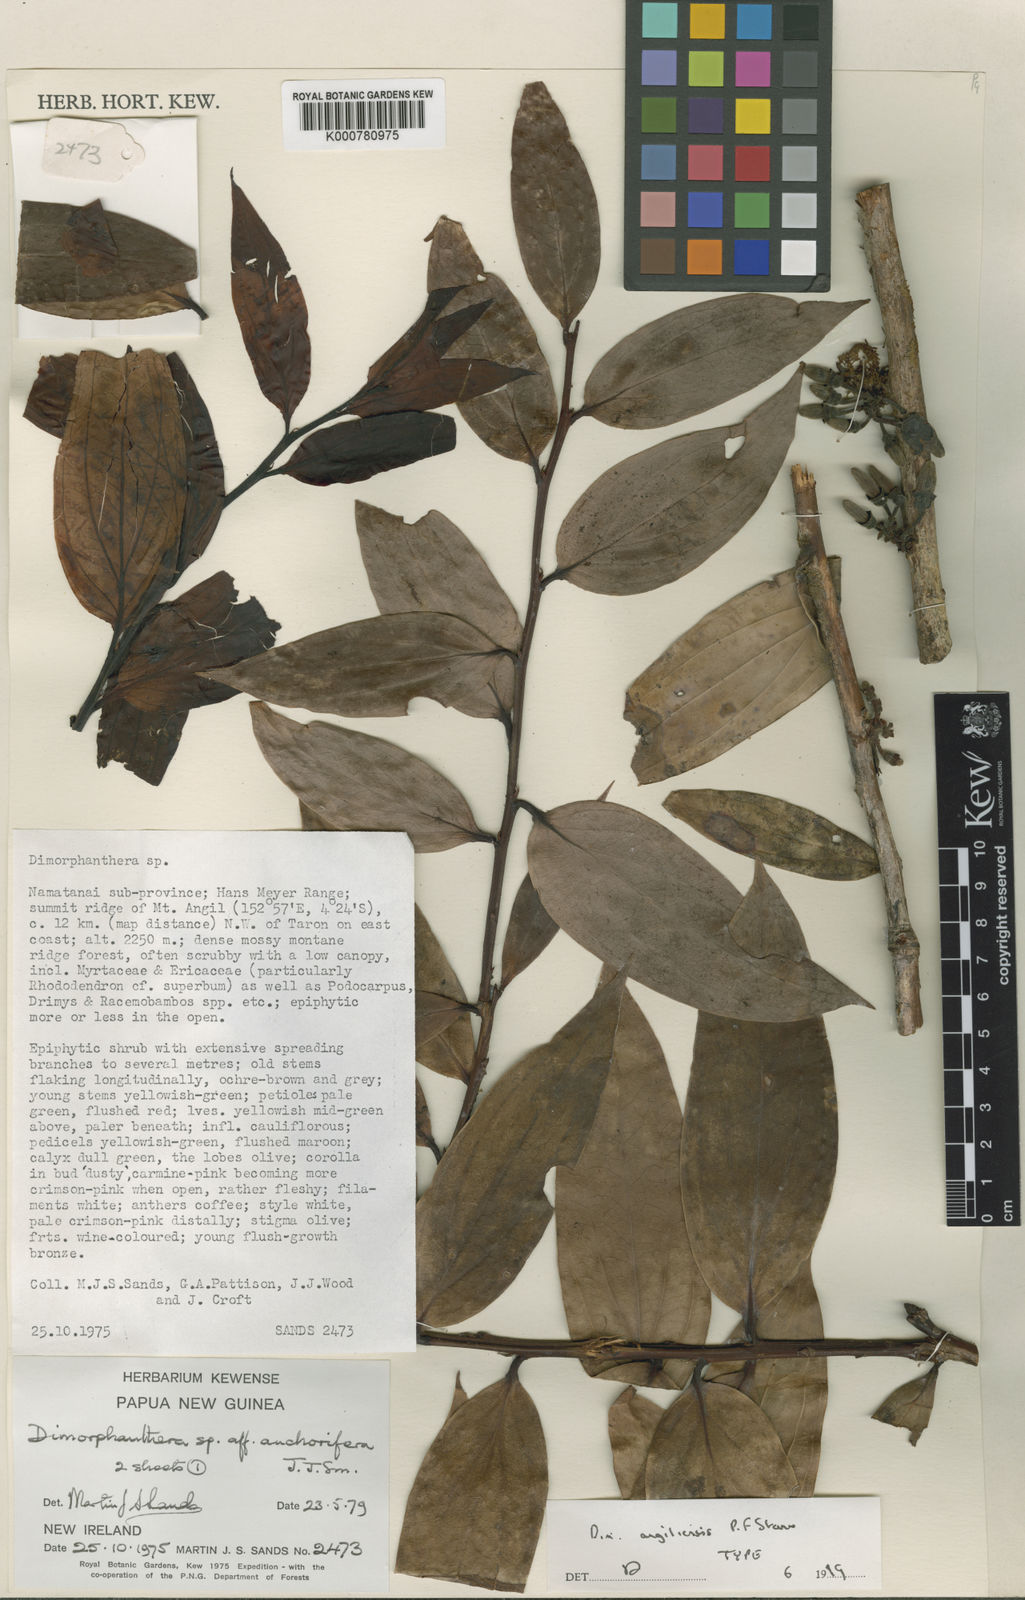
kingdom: Plantae
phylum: Tracheophyta
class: Magnoliopsida
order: Ericales
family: Ericaceae
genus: Dimorphanthera
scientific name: Dimorphanthera angiliensis
